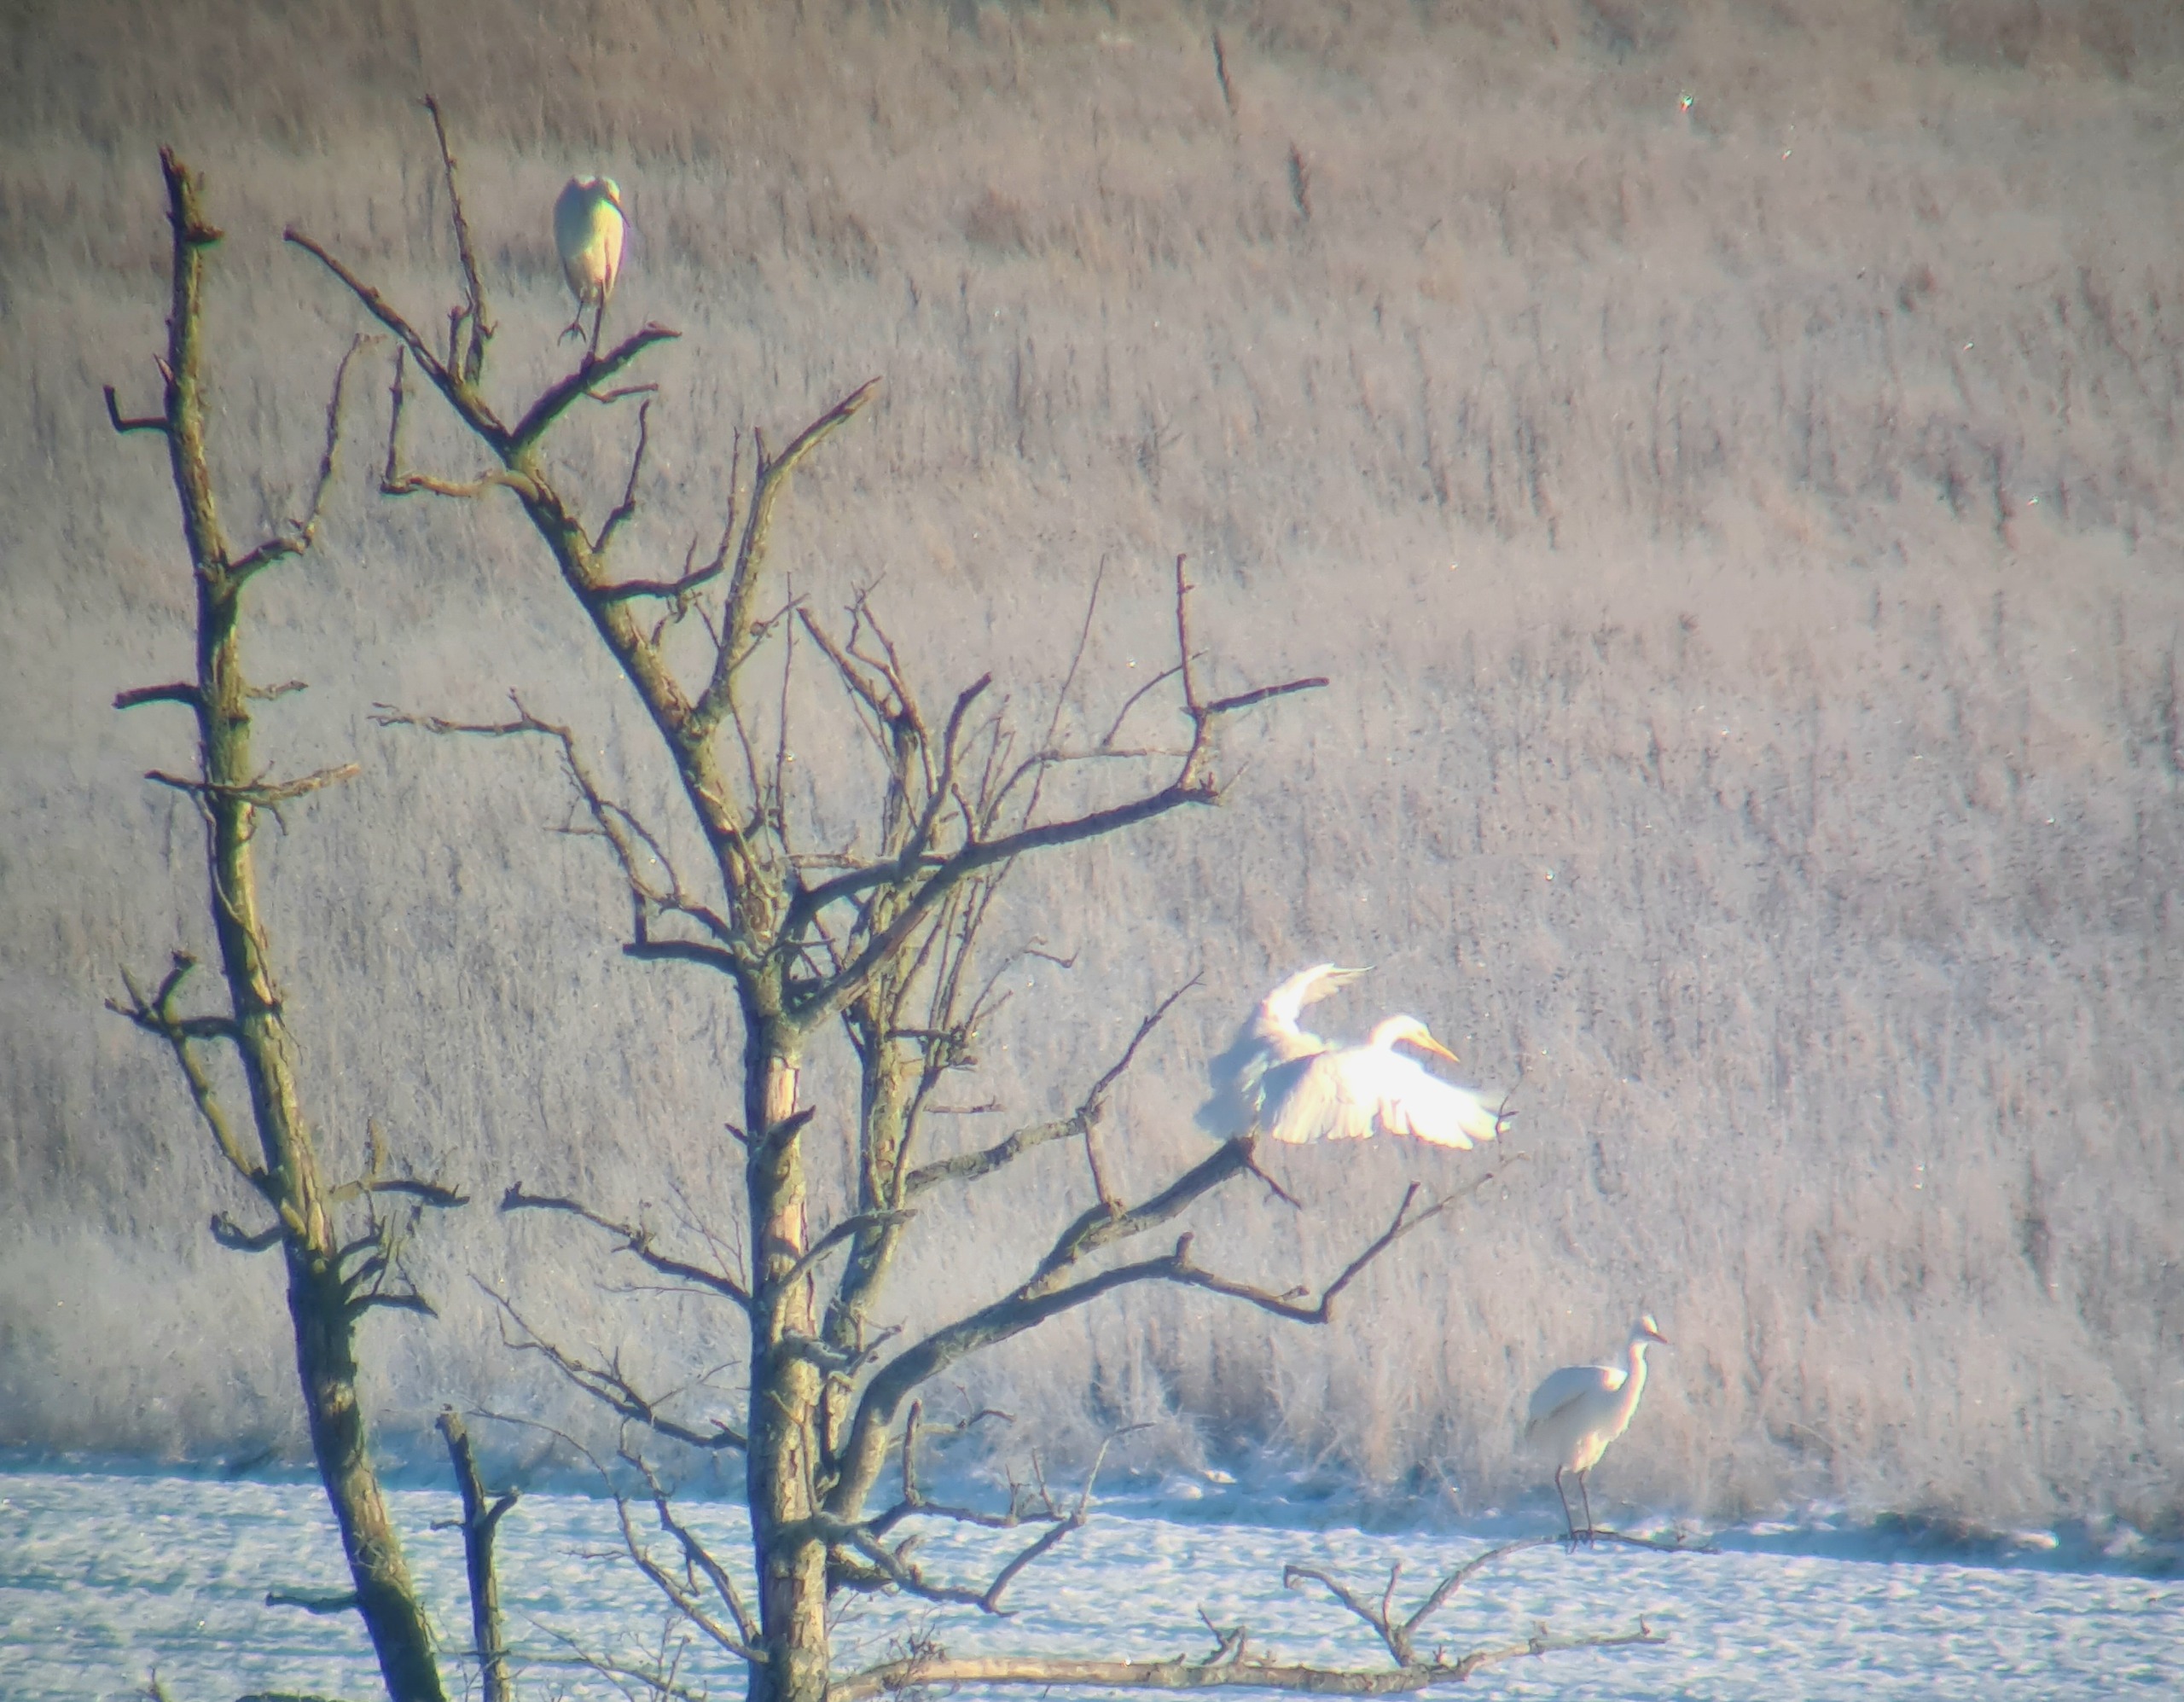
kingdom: Animalia
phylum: Chordata
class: Aves
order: Pelecaniformes
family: Ardeidae
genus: Ardea
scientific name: Ardea alba
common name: Sølvhejre
